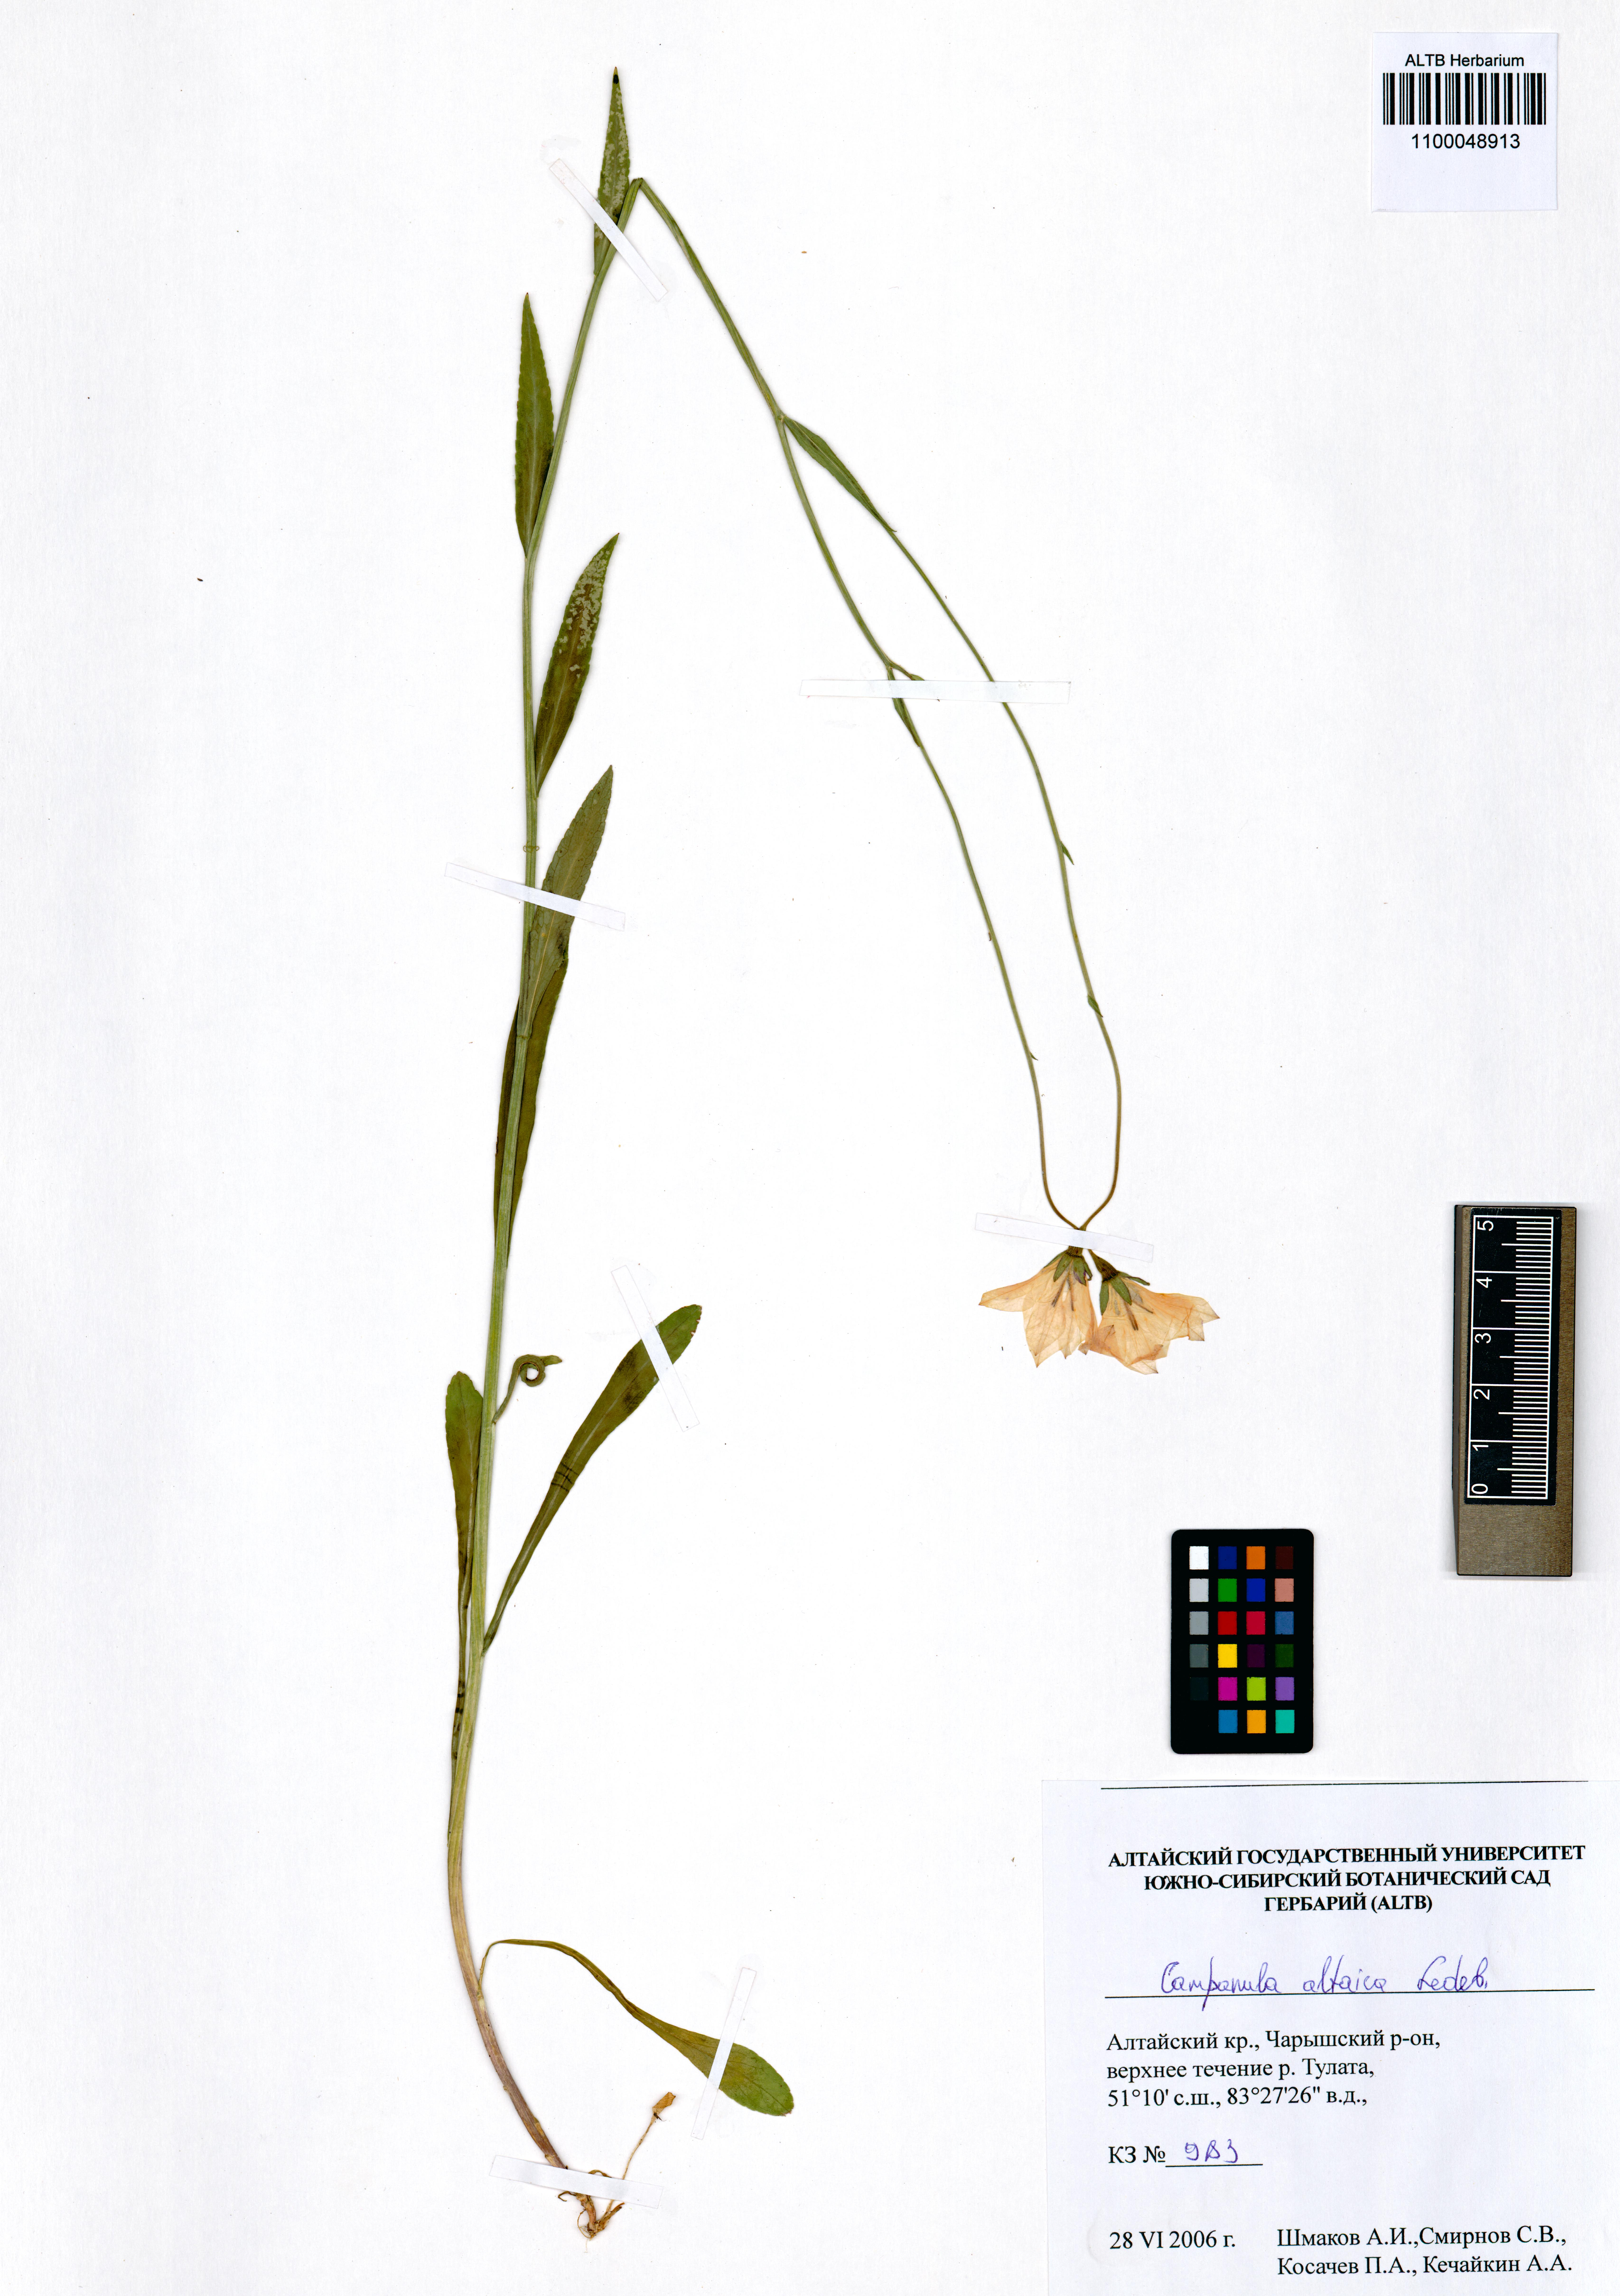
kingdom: Plantae
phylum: Tracheophyta
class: Magnoliopsida
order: Asterales
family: Campanulaceae
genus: Campanula
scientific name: Campanula stevenii
